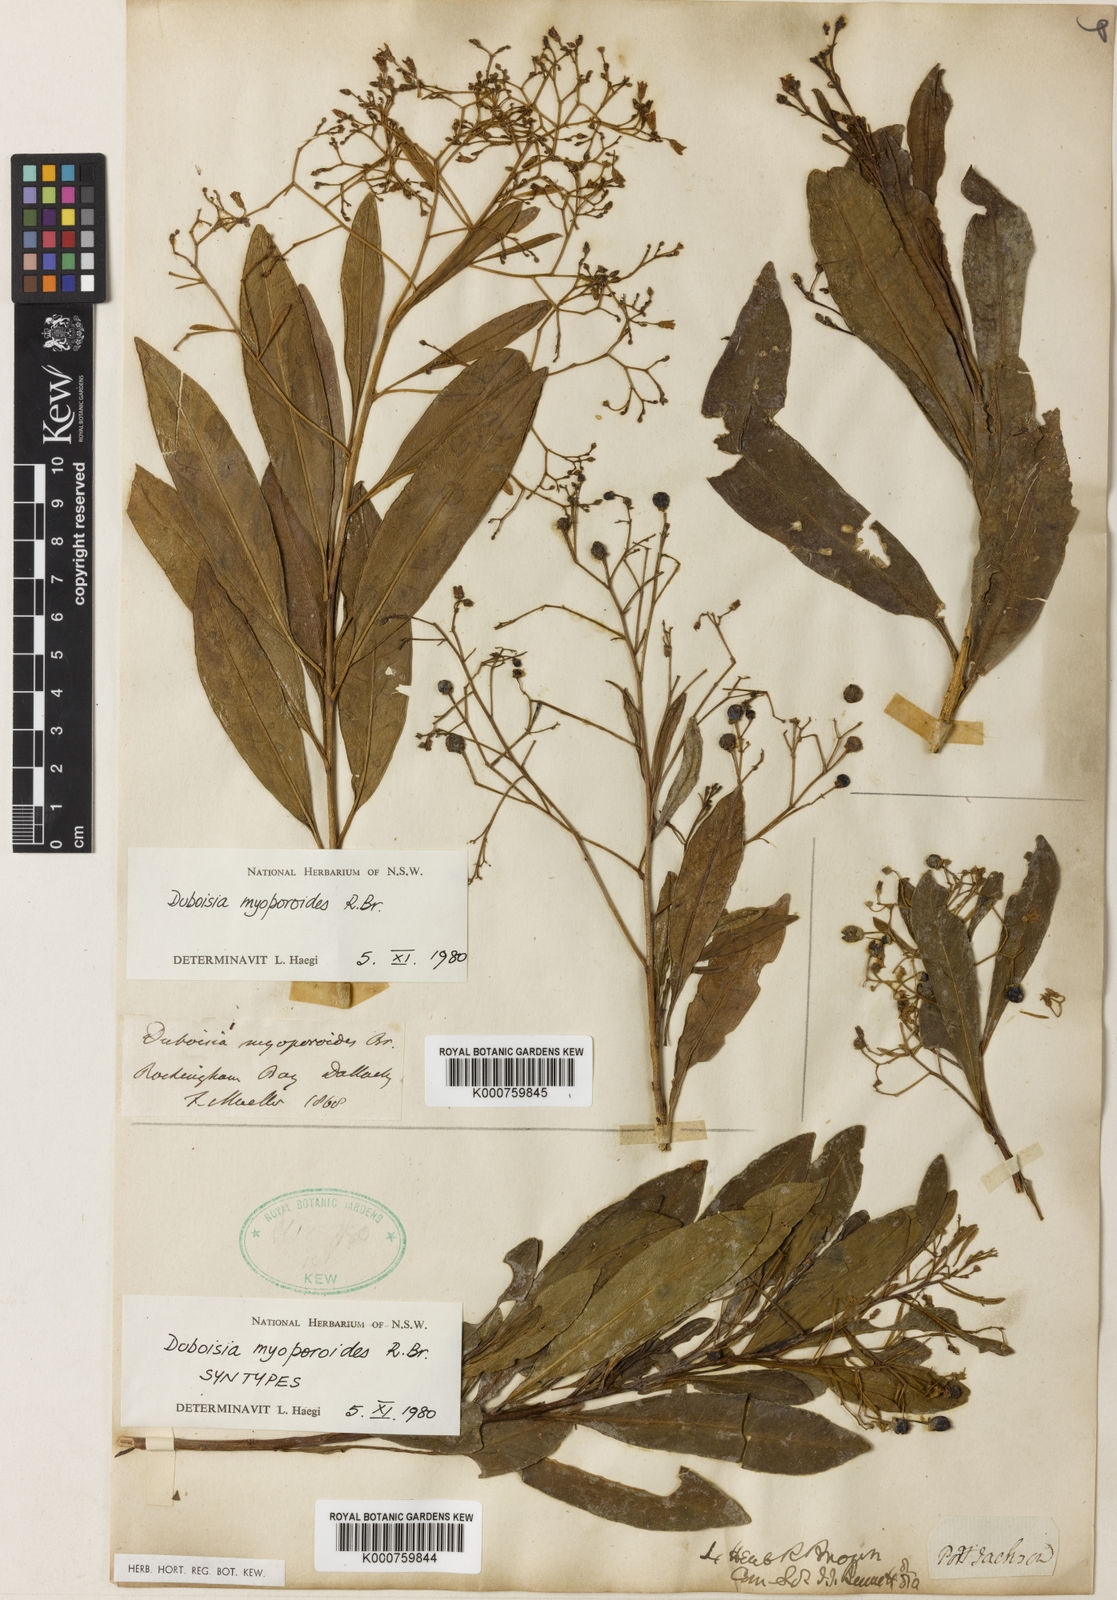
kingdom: Plantae
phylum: Tracheophyta
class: Magnoliopsida
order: Solanales
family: Solanaceae
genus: Duboisia
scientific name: Duboisia myoporoides
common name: Corkwoodtree
